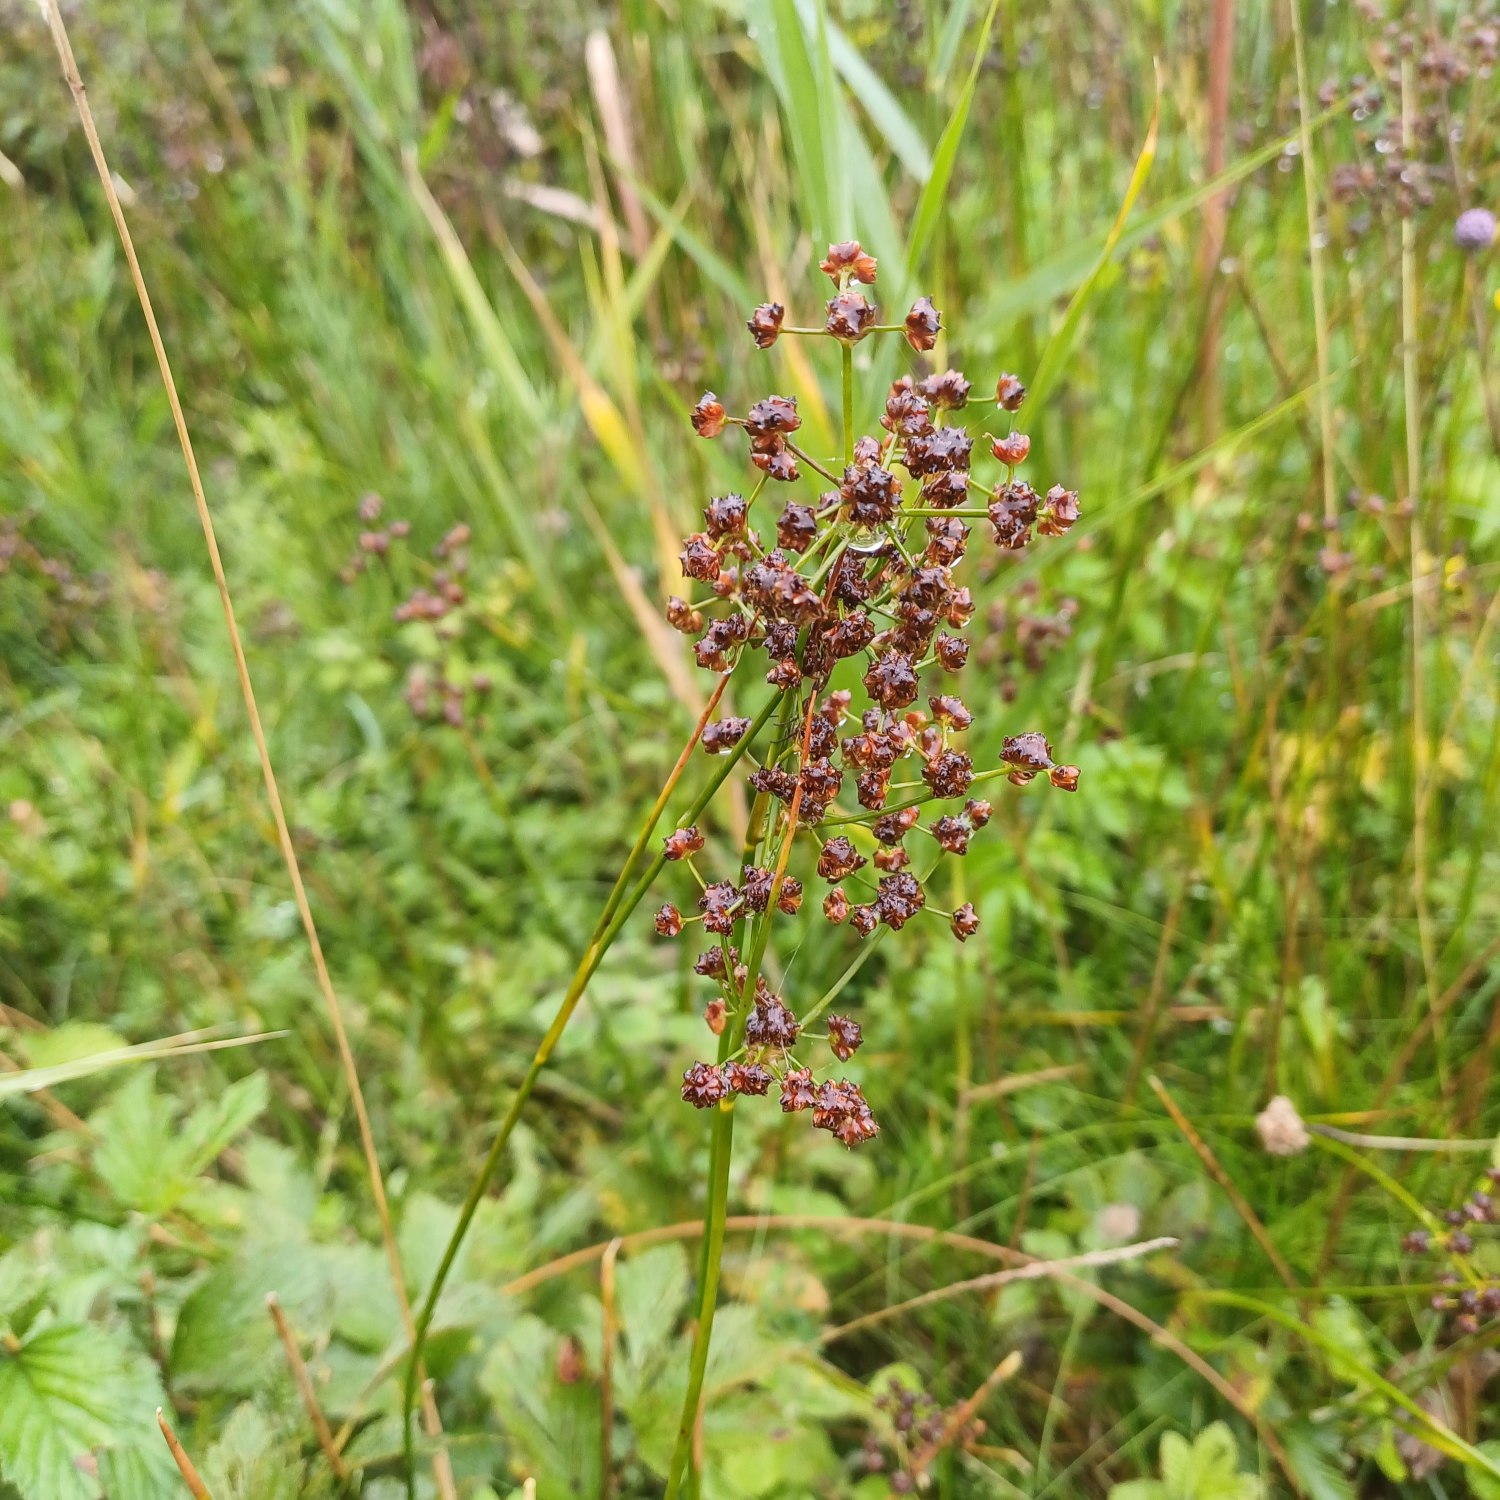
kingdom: Plantae
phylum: Tracheophyta
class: Liliopsida
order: Poales
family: Juncaceae
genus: Juncus
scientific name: Juncus subnodulosus
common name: Butblomstret siv
